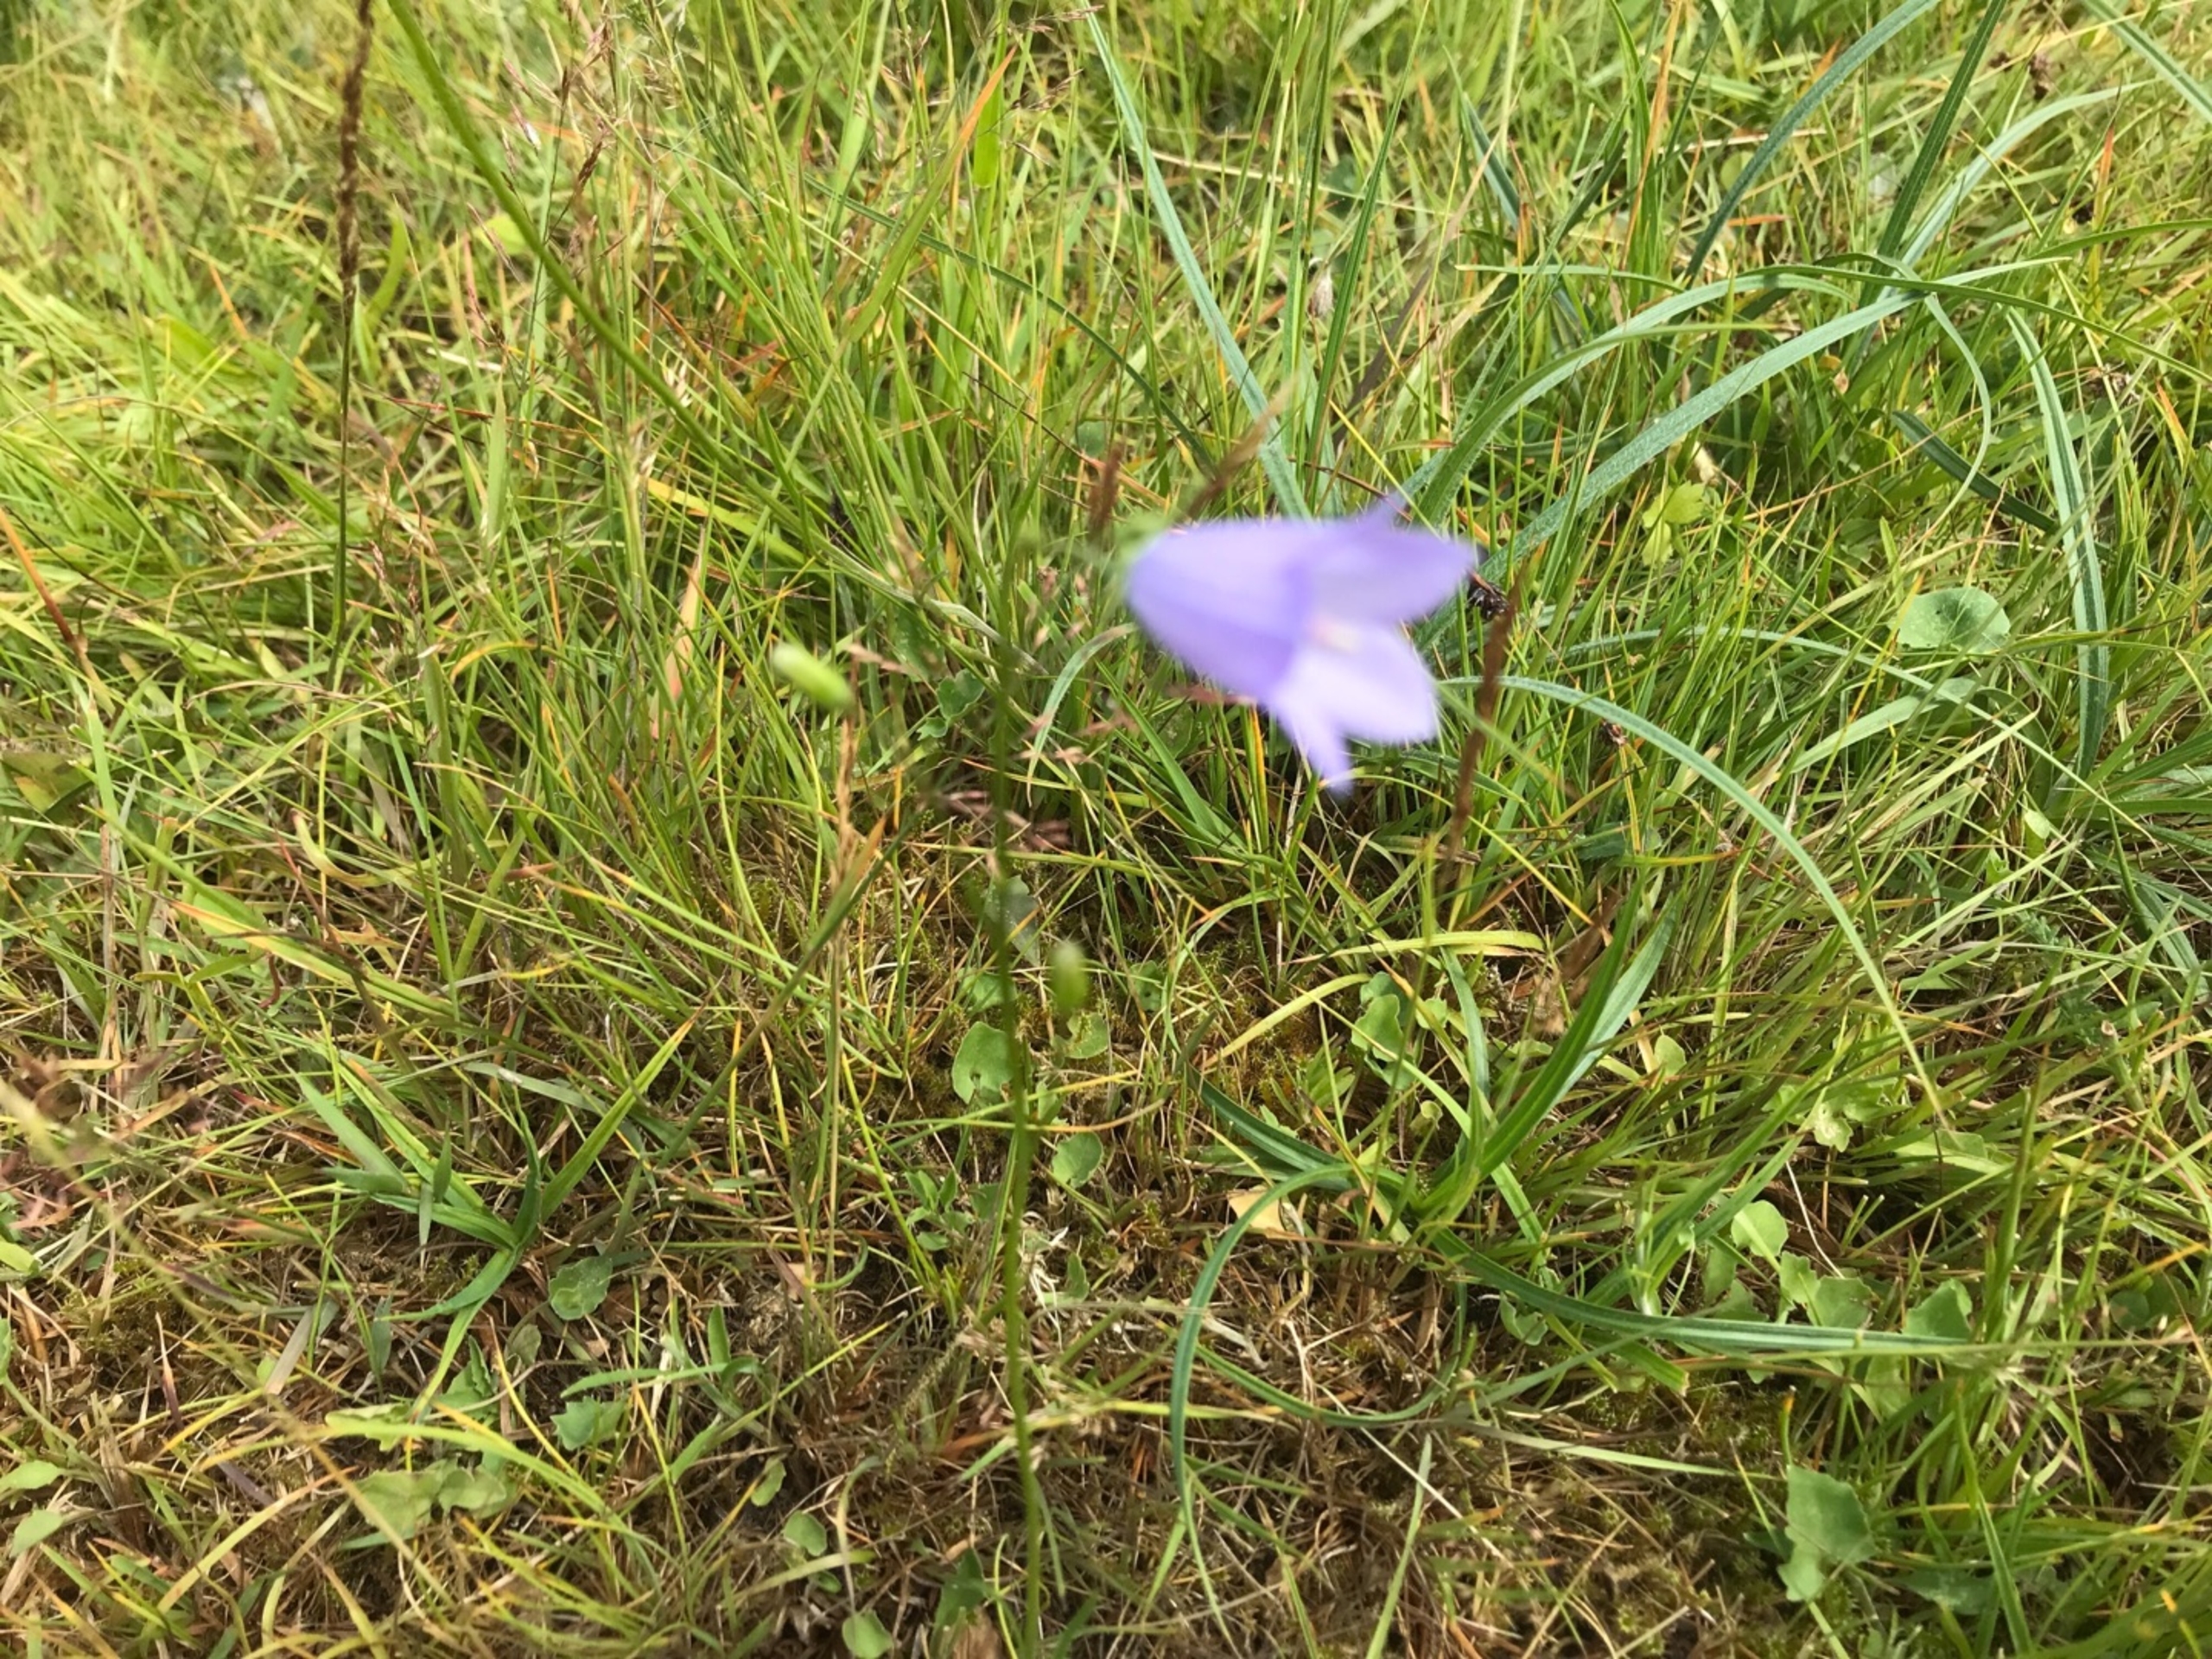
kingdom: Plantae
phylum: Tracheophyta
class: Magnoliopsida
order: Asterales
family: Campanulaceae
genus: Campanula
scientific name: Campanula rotundifolia
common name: Liden klokke
